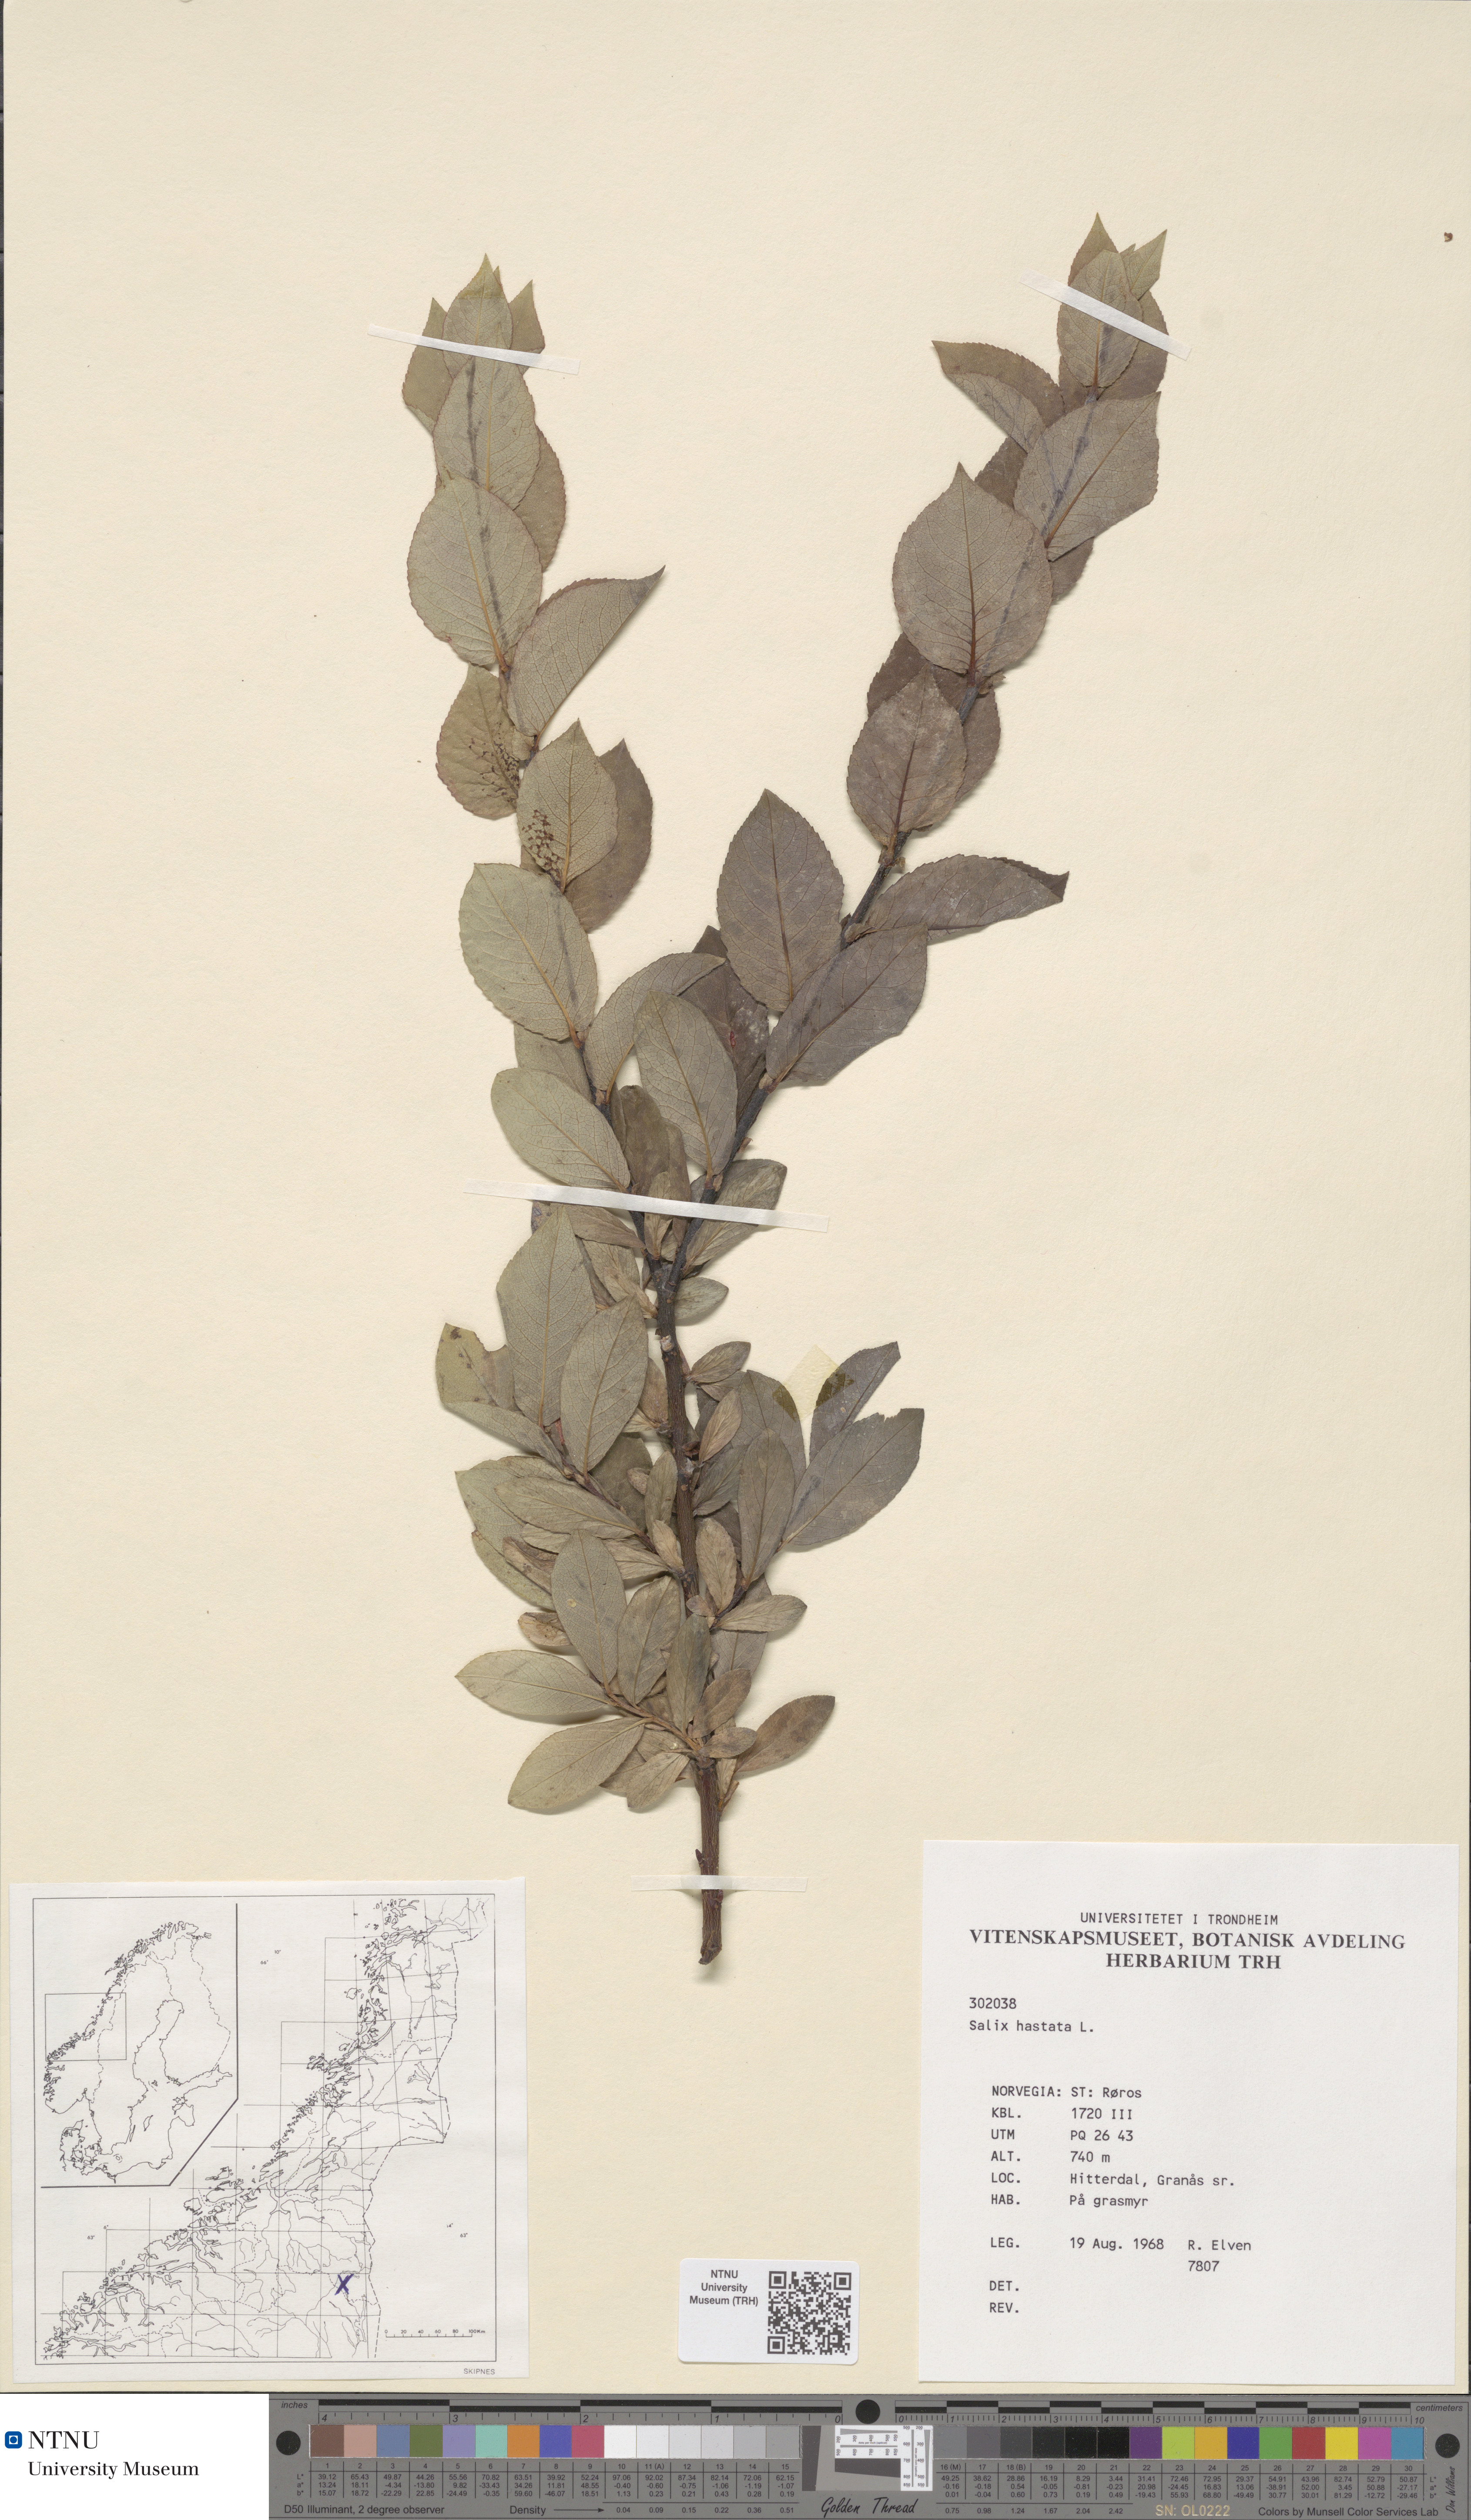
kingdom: Plantae
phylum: Tracheophyta
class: Magnoliopsida
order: Malpighiales
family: Salicaceae
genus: Salix
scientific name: Salix hastata
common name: Halberd willow
